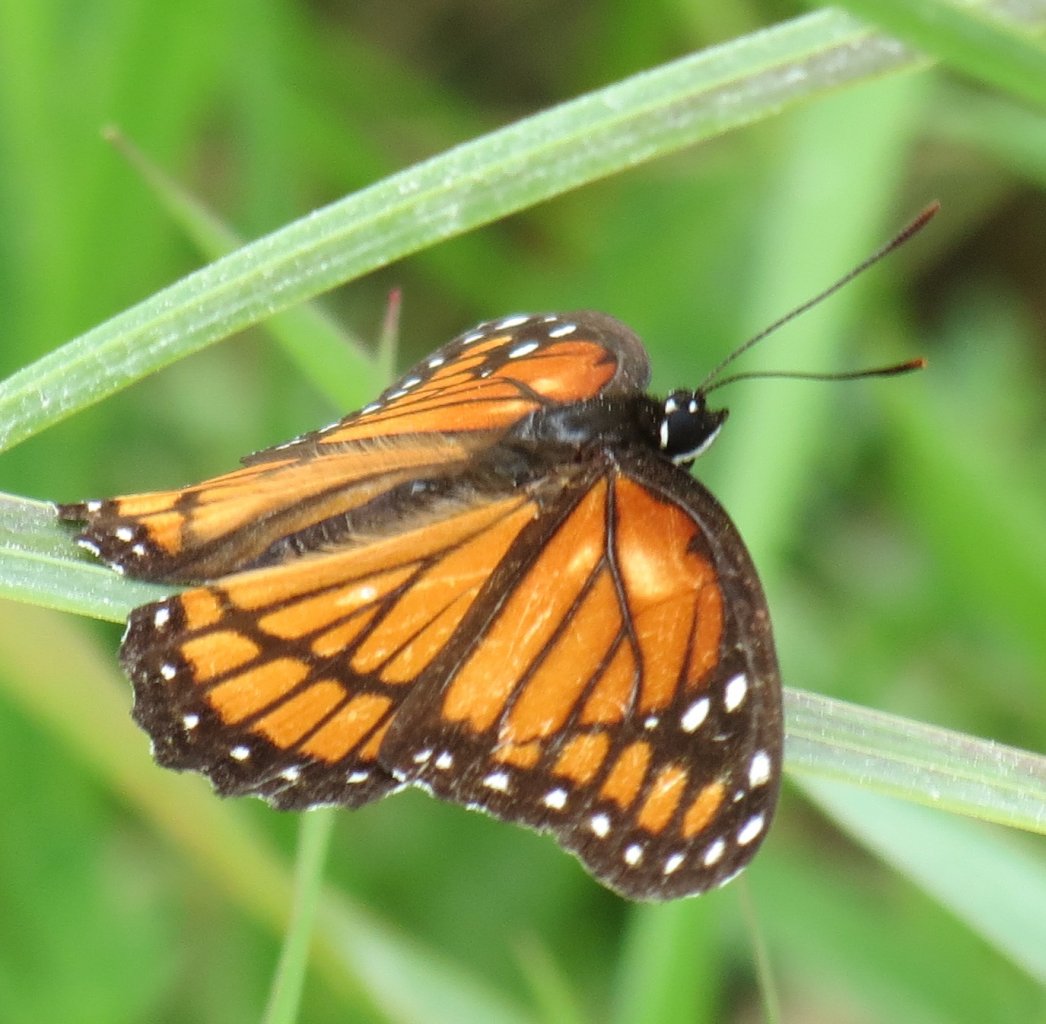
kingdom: Animalia
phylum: Arthropoda
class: Insecta
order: Lepidoptera
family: Nymphalidae
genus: Limenitis
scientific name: Limenitis archippus
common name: Viceroy
